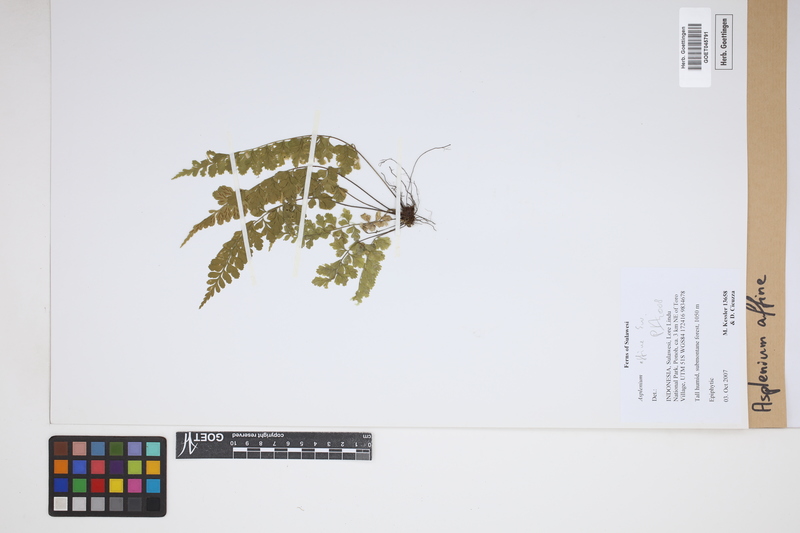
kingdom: Plantae
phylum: Tracheophyta
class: Polypodiopsida
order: Polypodiales
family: Aspleniaceae
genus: Asplenium
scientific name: Asplenium affine
